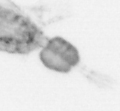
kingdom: Animalia
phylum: Arthropoda
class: Copepoda
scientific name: Copepoda
